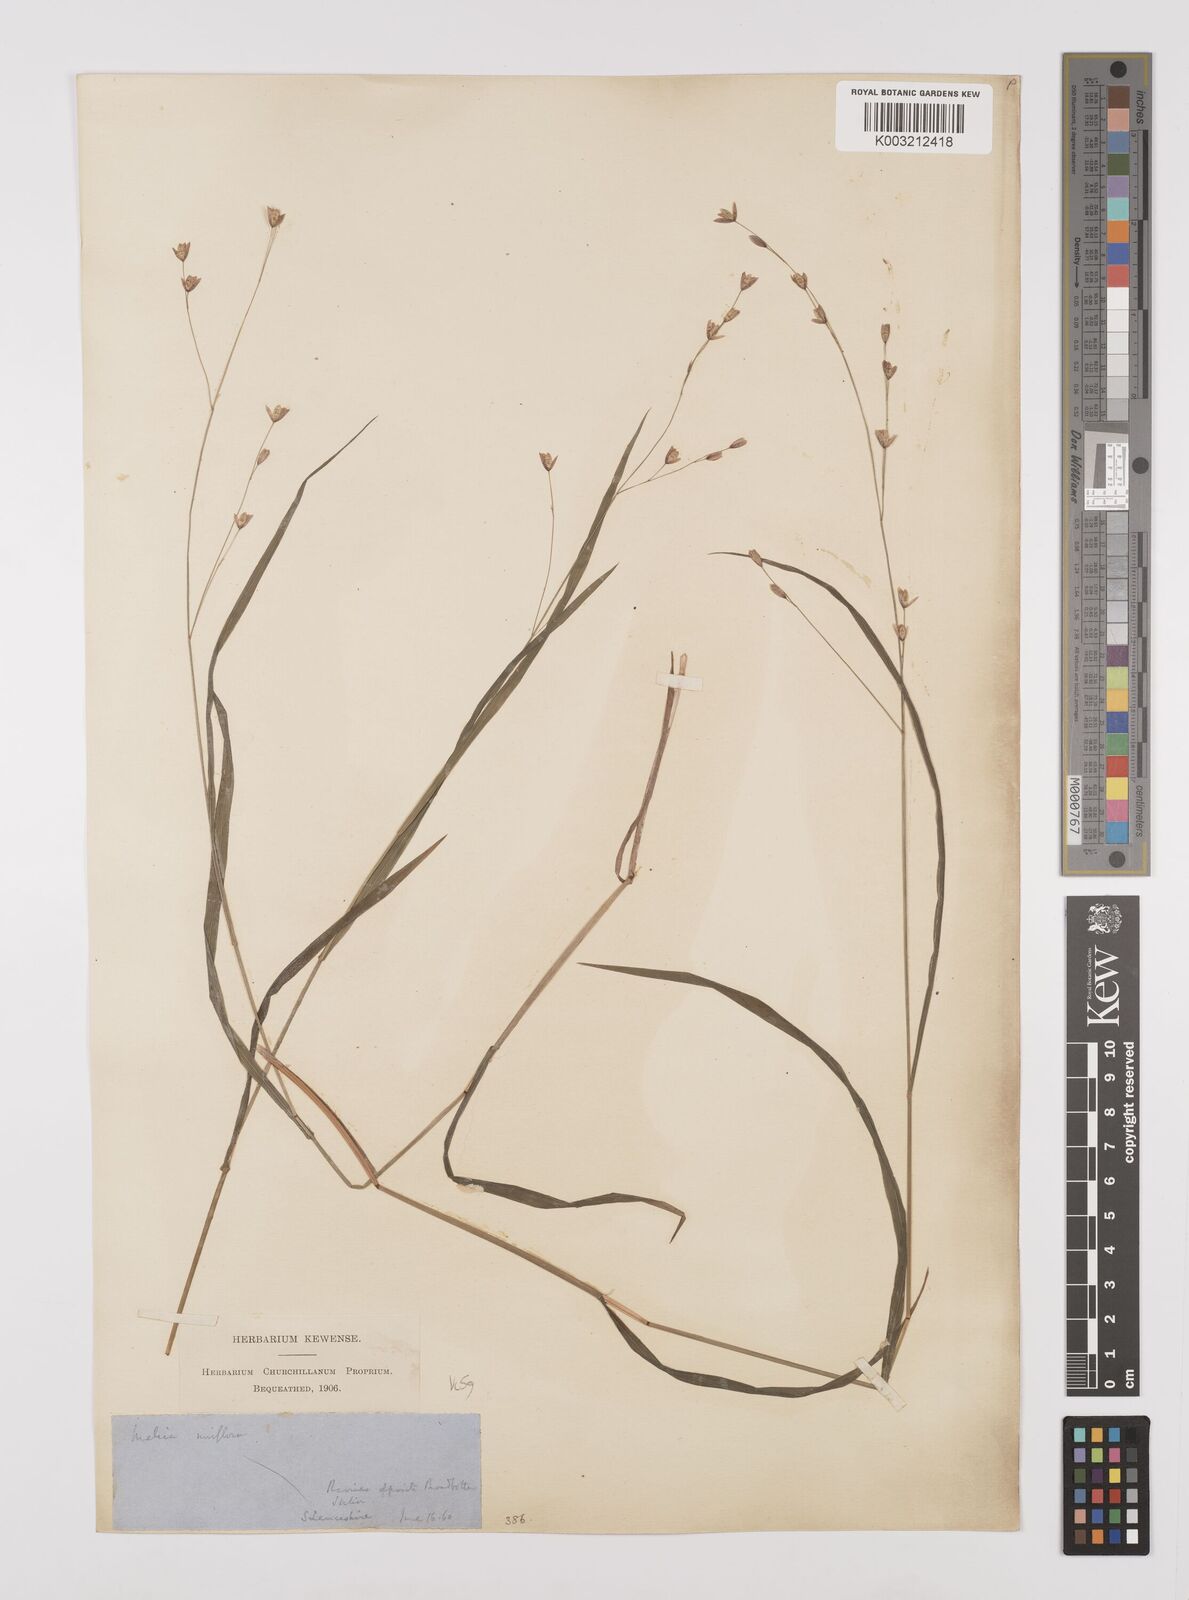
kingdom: Plantae
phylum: Tracheophyta
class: Liliopsida
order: Poales
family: Poaceae
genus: Melica
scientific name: Melica uniflora
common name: Wood melick
